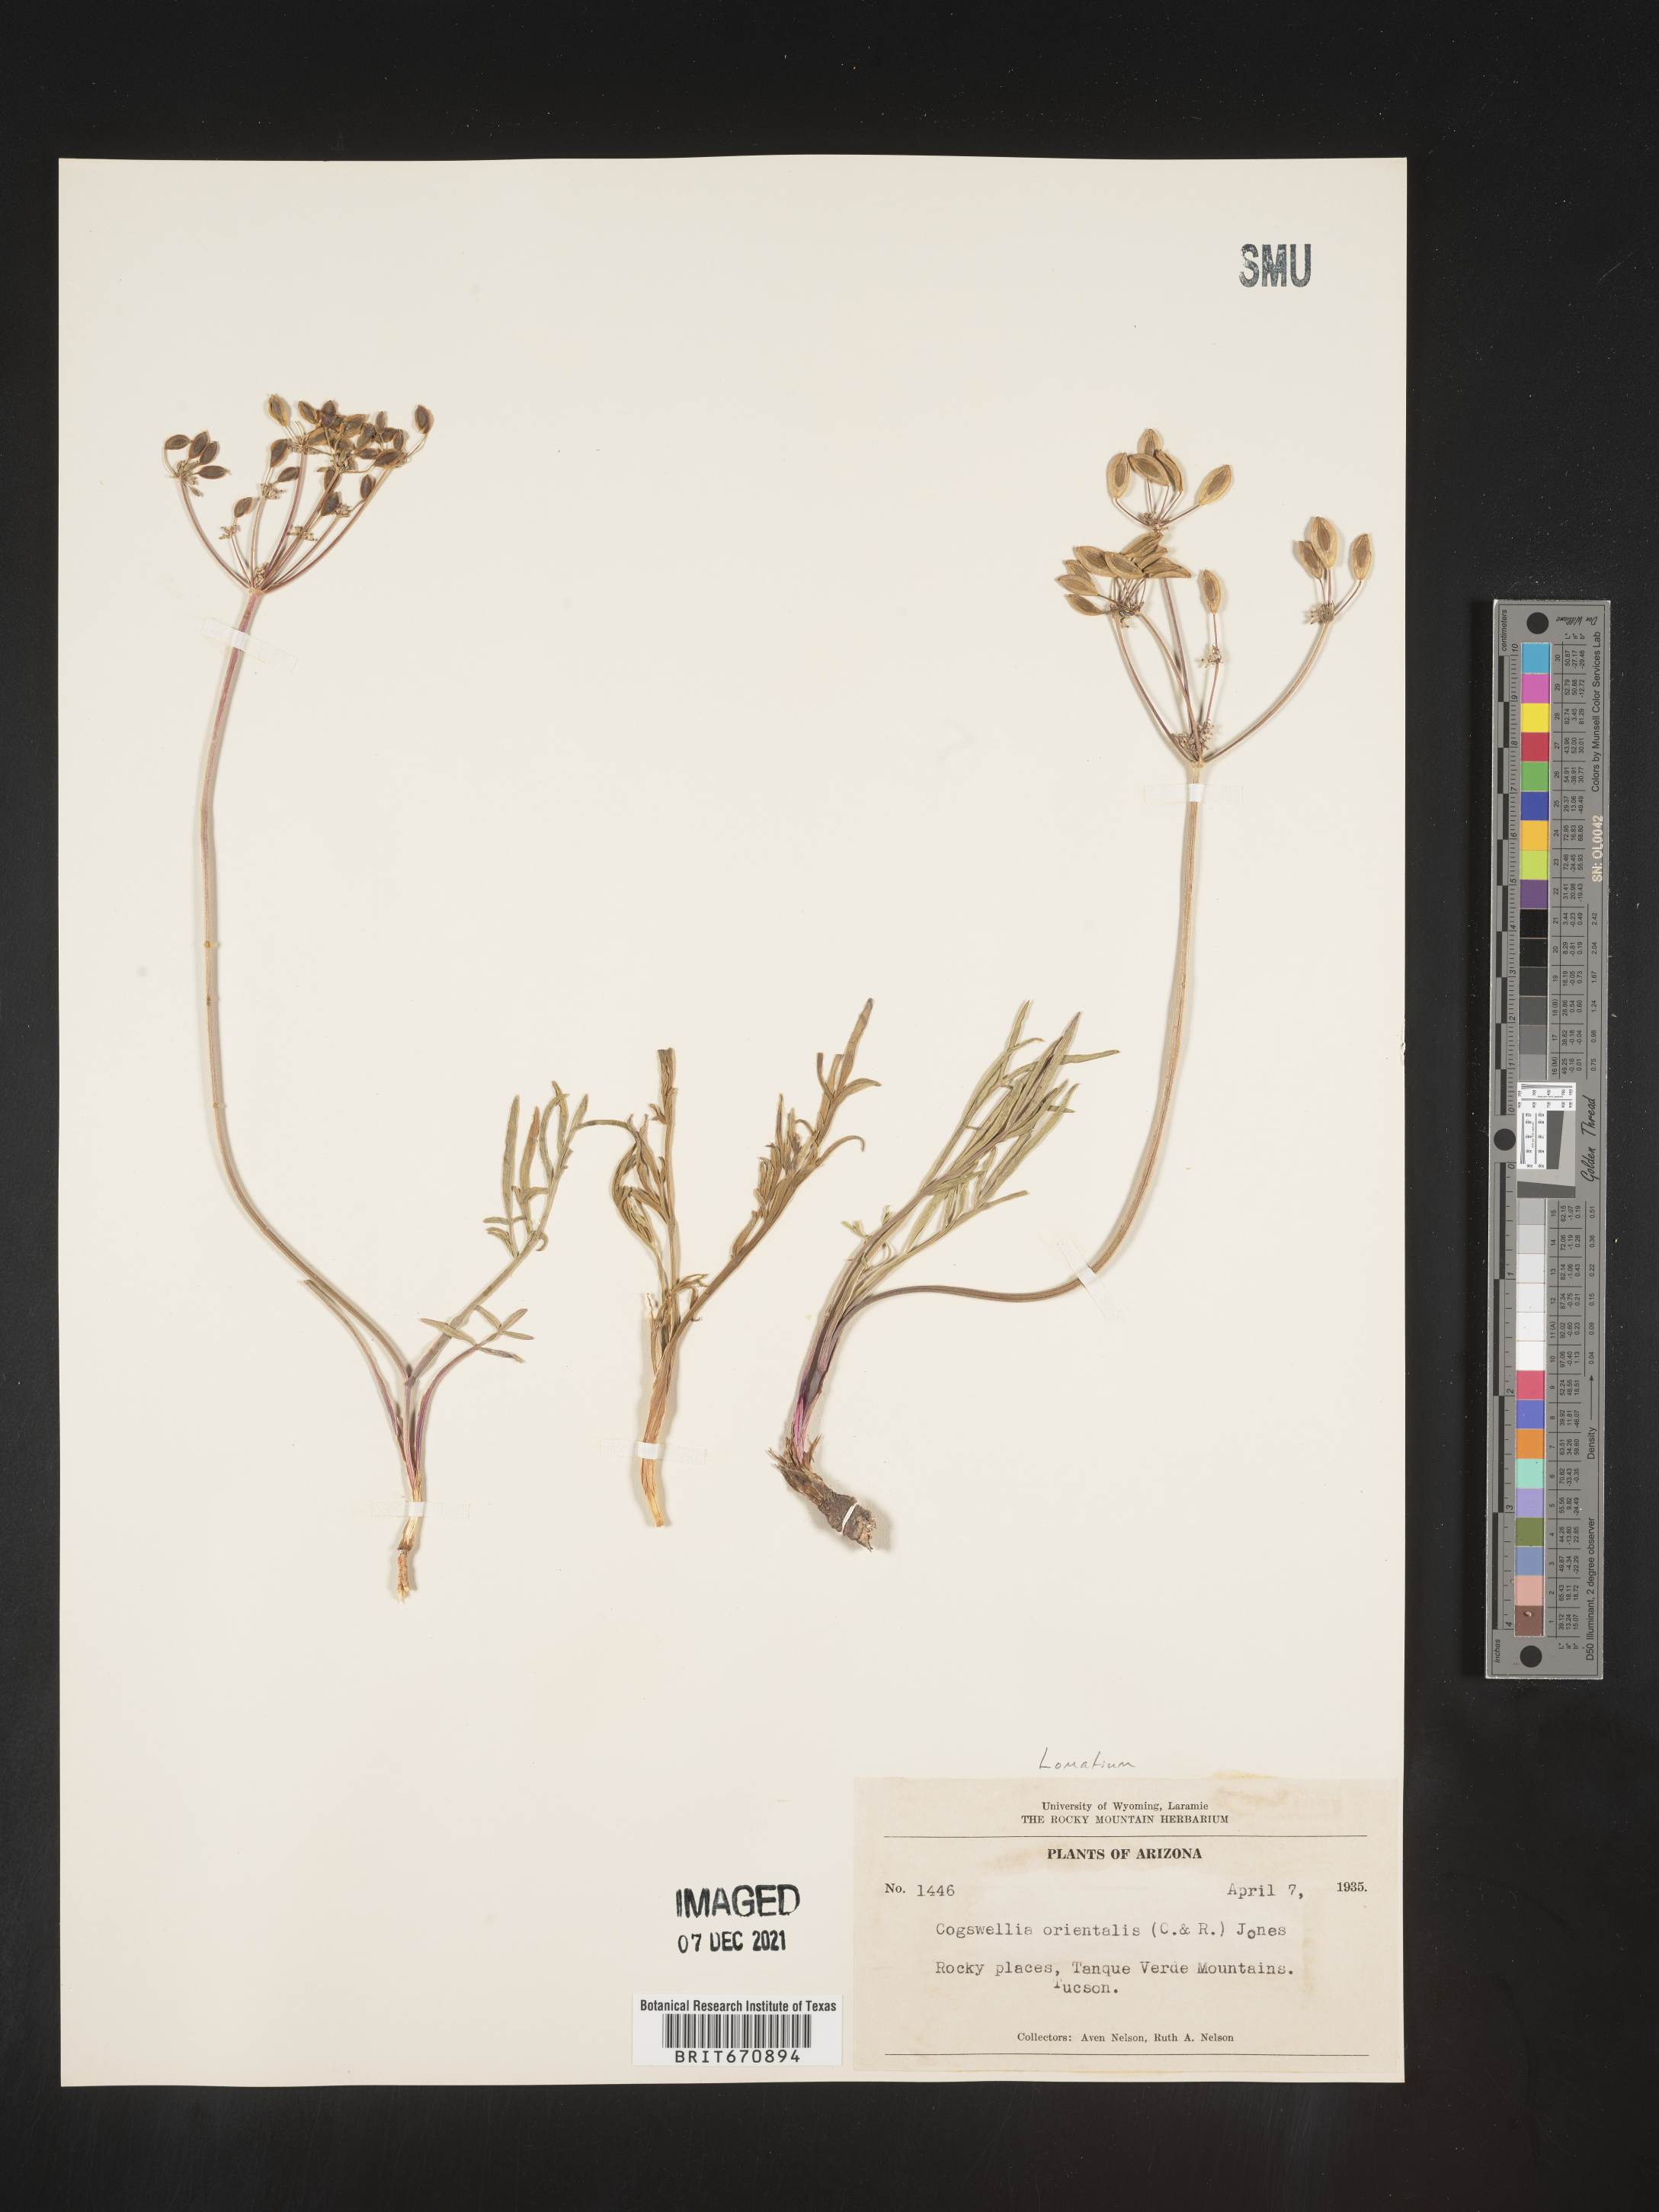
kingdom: Plantae
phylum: Tracheophyta
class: Magnoliopsida
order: Apiales
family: Apiaceae
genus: Lomatium
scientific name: Lomatium
